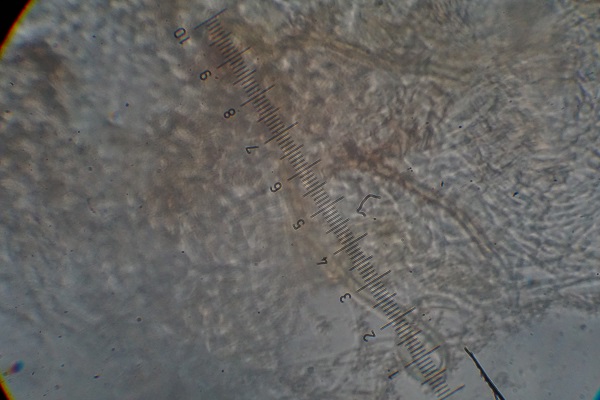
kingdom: Fungi
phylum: Ascomycota
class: Eurotiomycetes
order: Onygenales
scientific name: Onygenales
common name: hornsvampordenen
